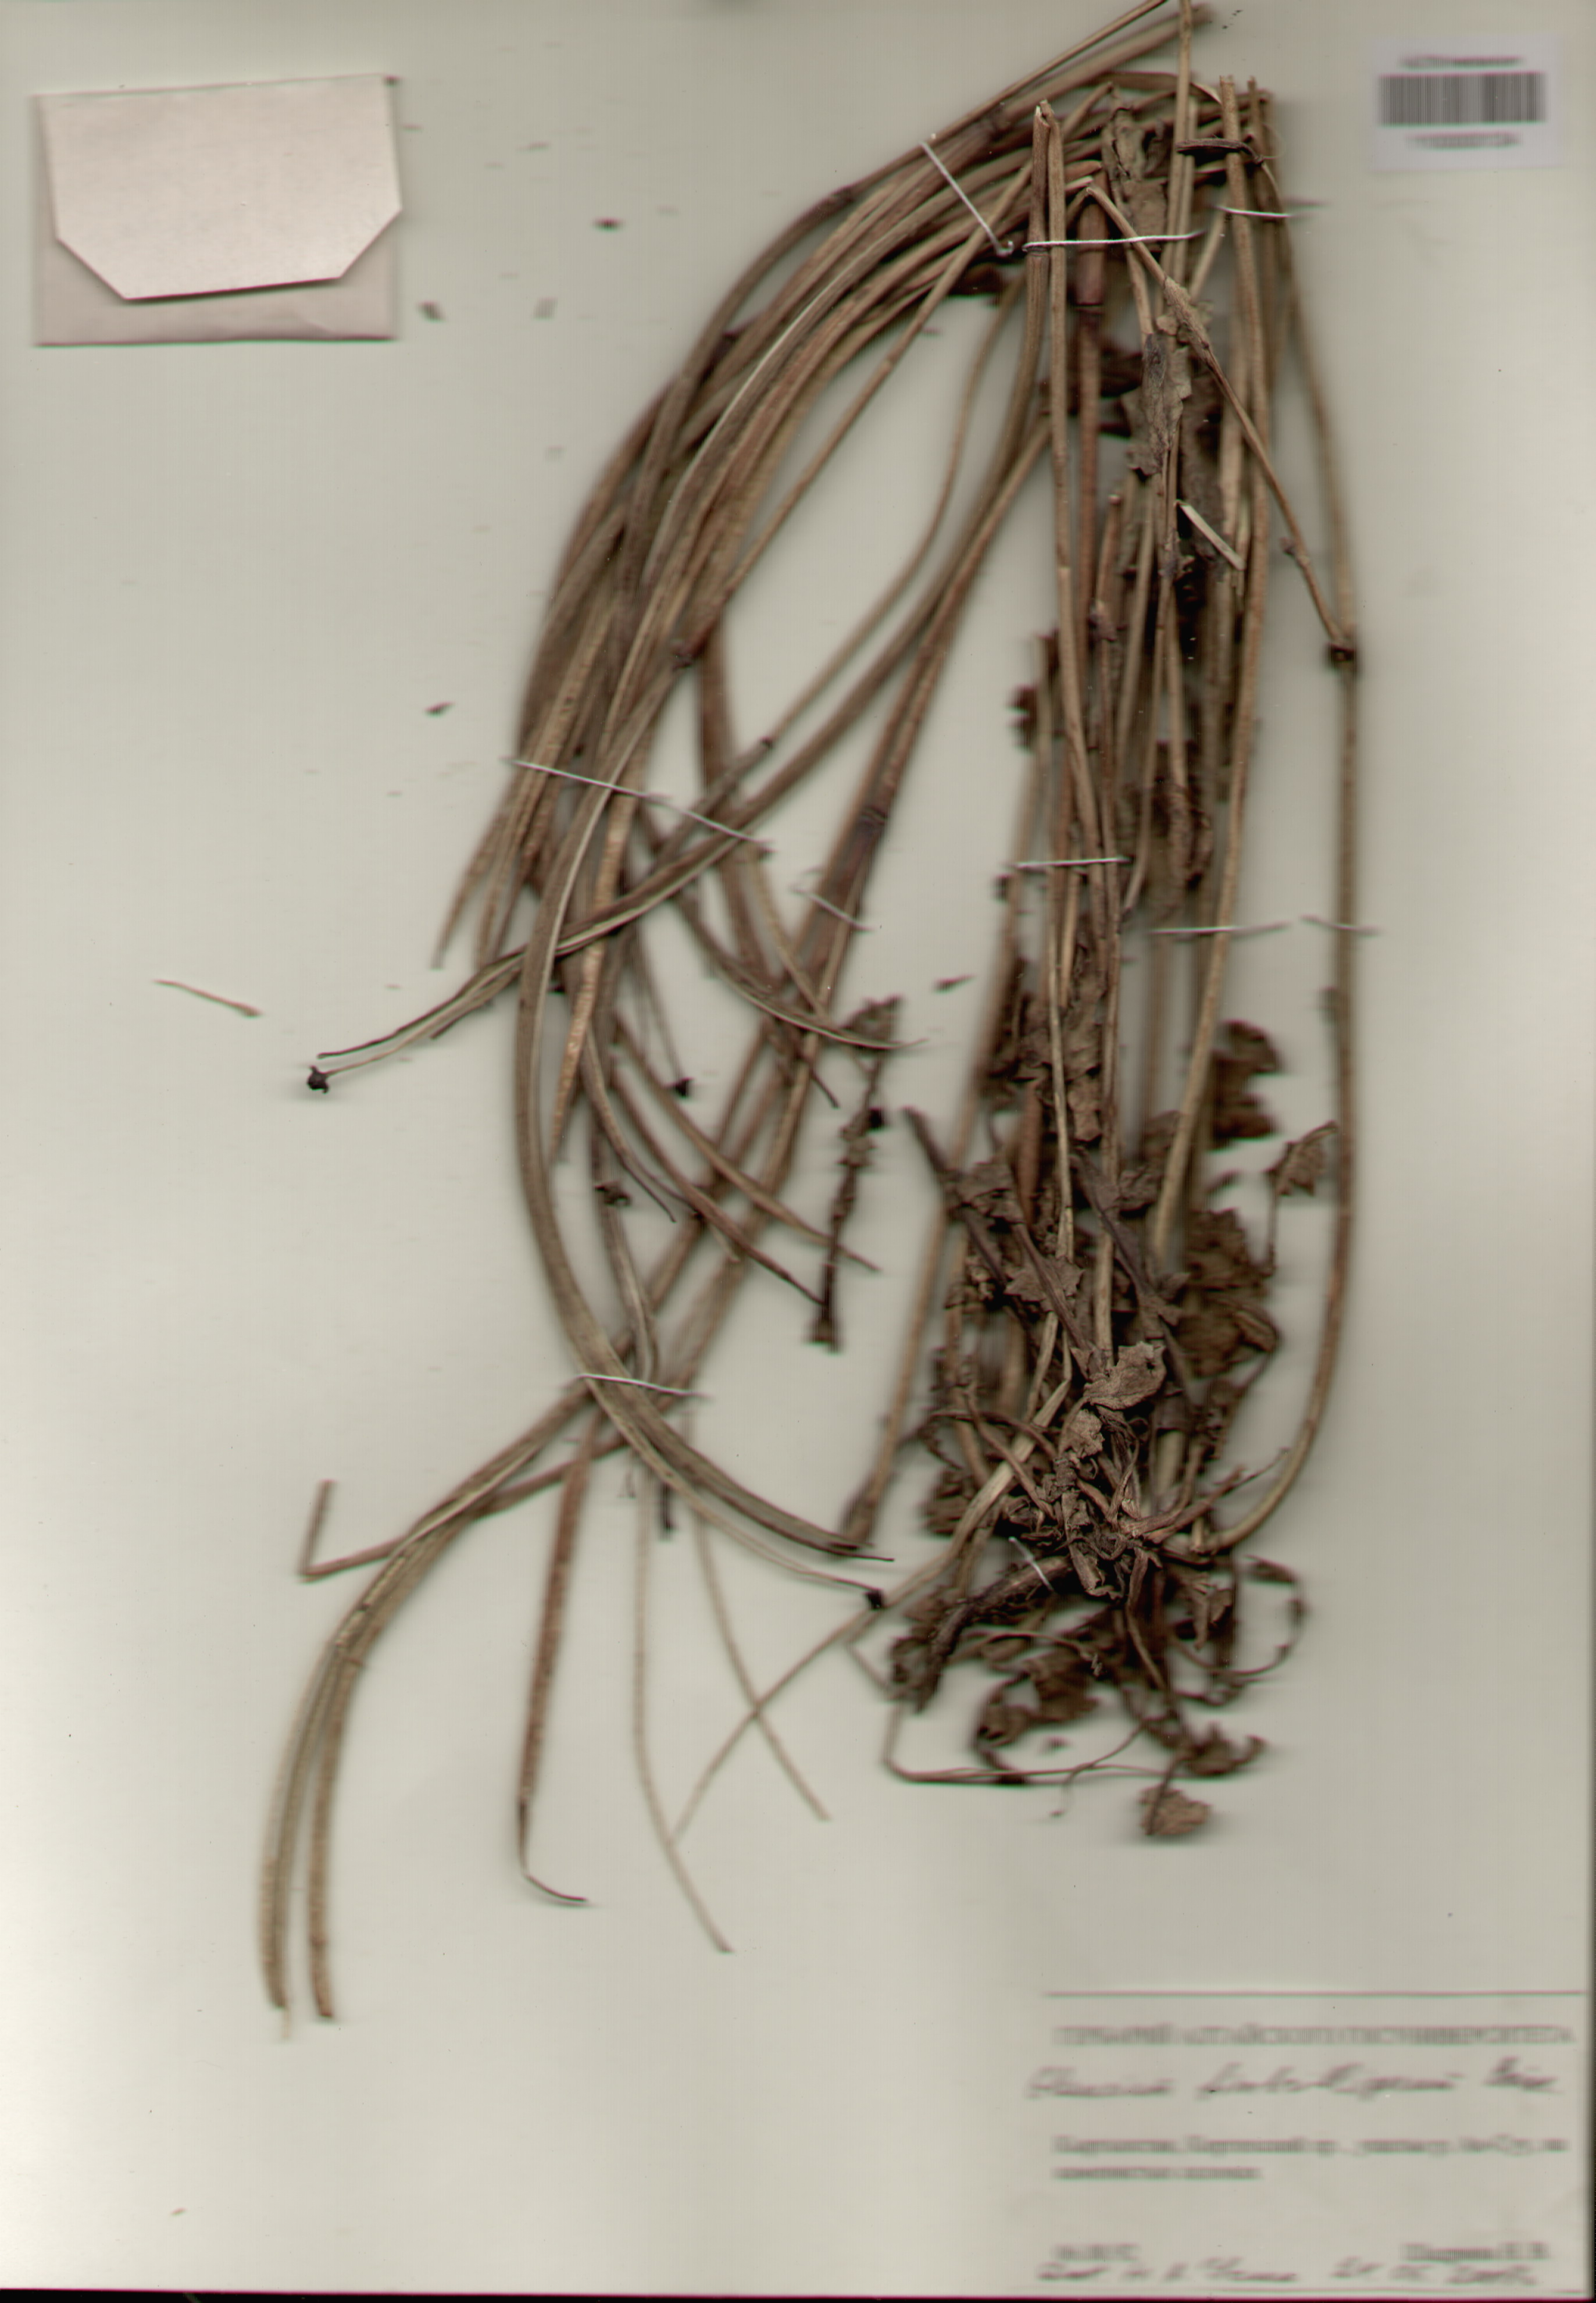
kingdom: Plantae
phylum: Tracheophyta
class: Magnoliopsida
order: Ranunculales
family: Papaveraceae
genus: Glaucium
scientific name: Glaucium fimbrilligerum
